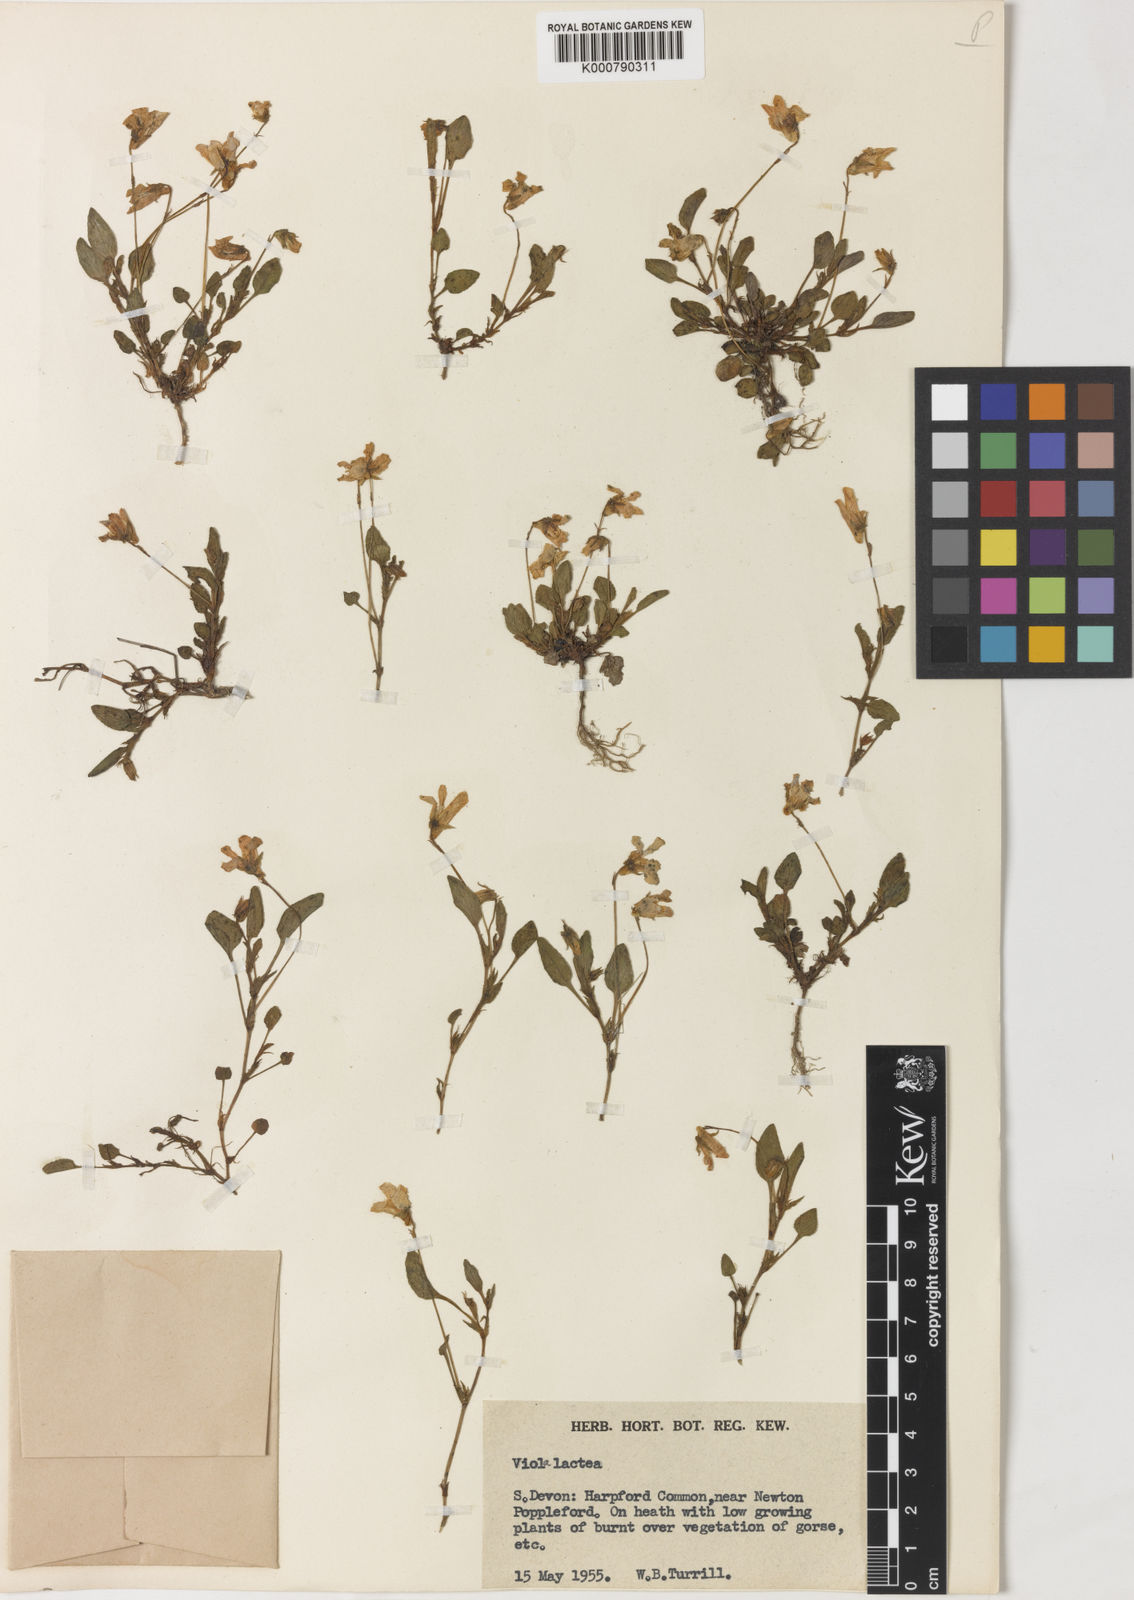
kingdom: Plantae
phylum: Tracheophyta
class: Magnoliopsida
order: Malpighiales
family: Violaceae
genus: Viola
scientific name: Viola lactea
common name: Pale dog-violet
